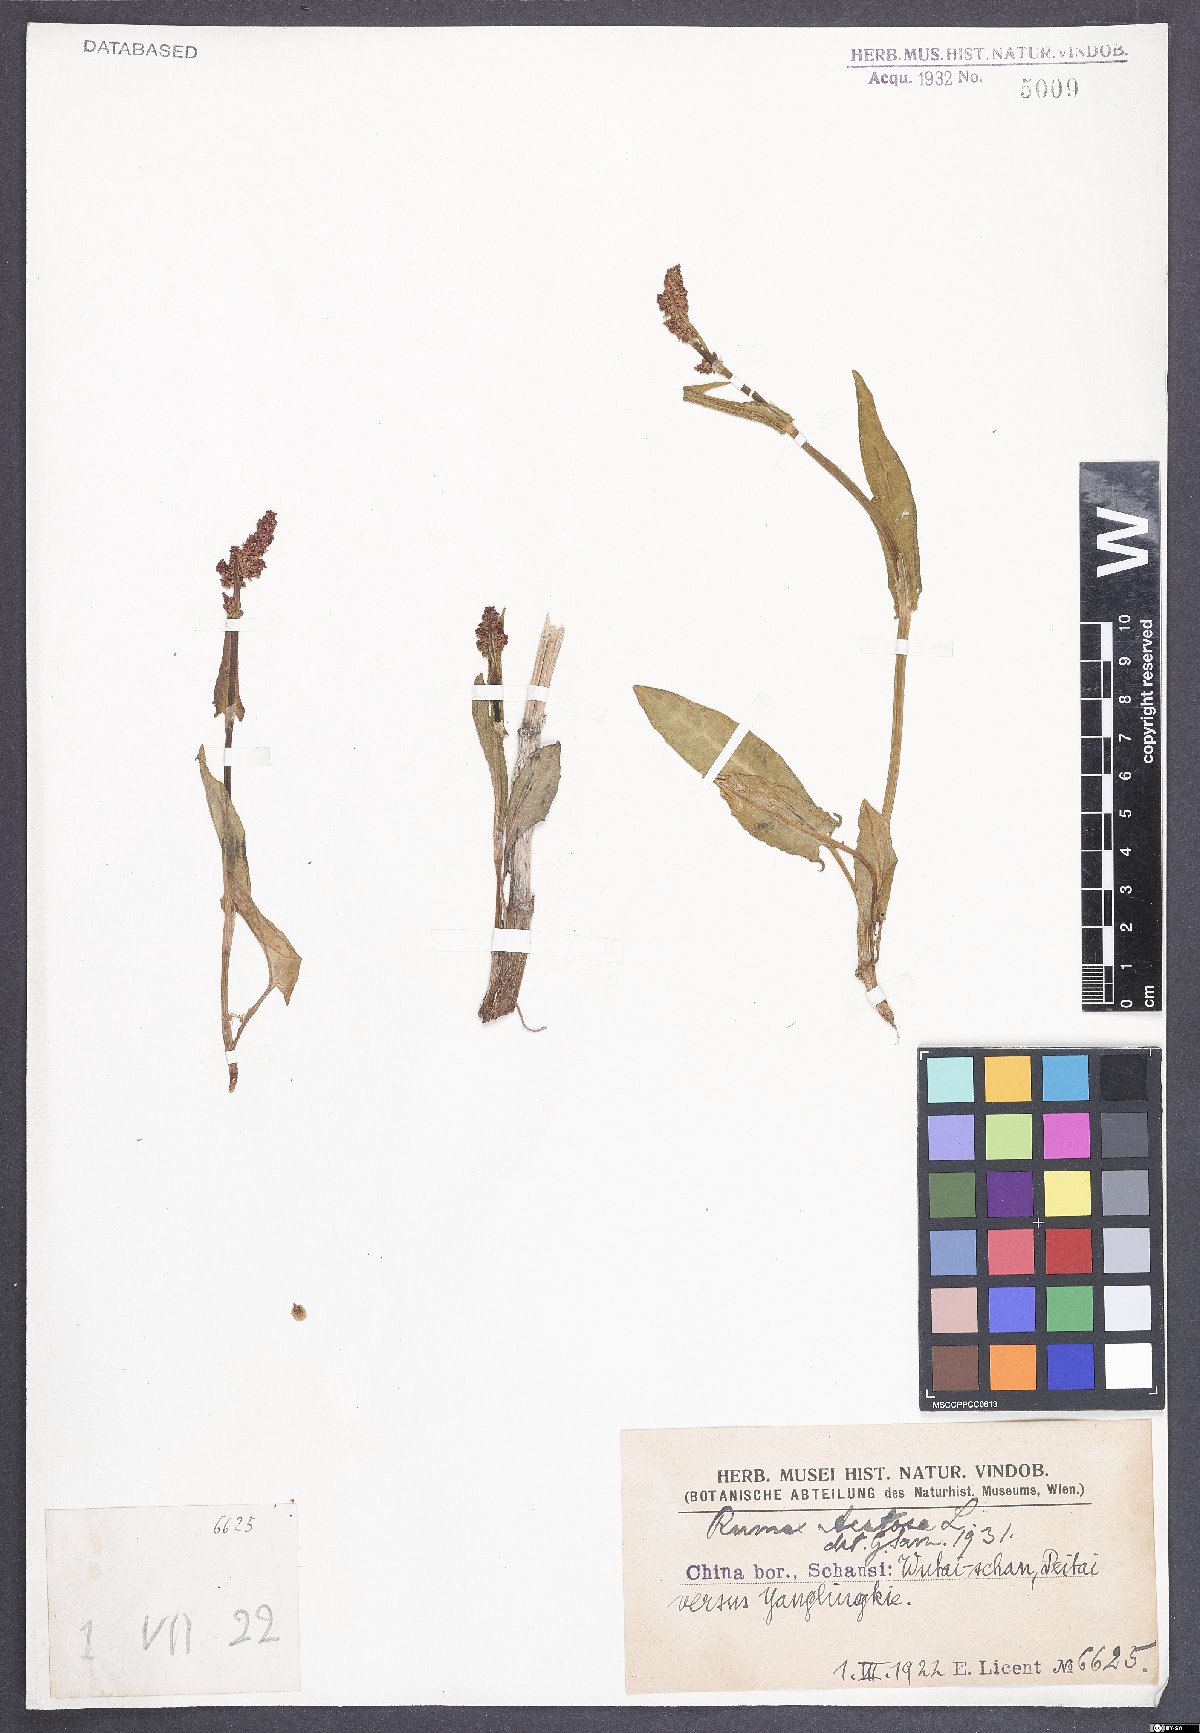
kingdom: Plantae
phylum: Tracheophyta
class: Magnoliopsida
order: Caryophyllales
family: Polygonaceae
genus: Rumex
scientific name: Rumex acetosa
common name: Garden sorrel
